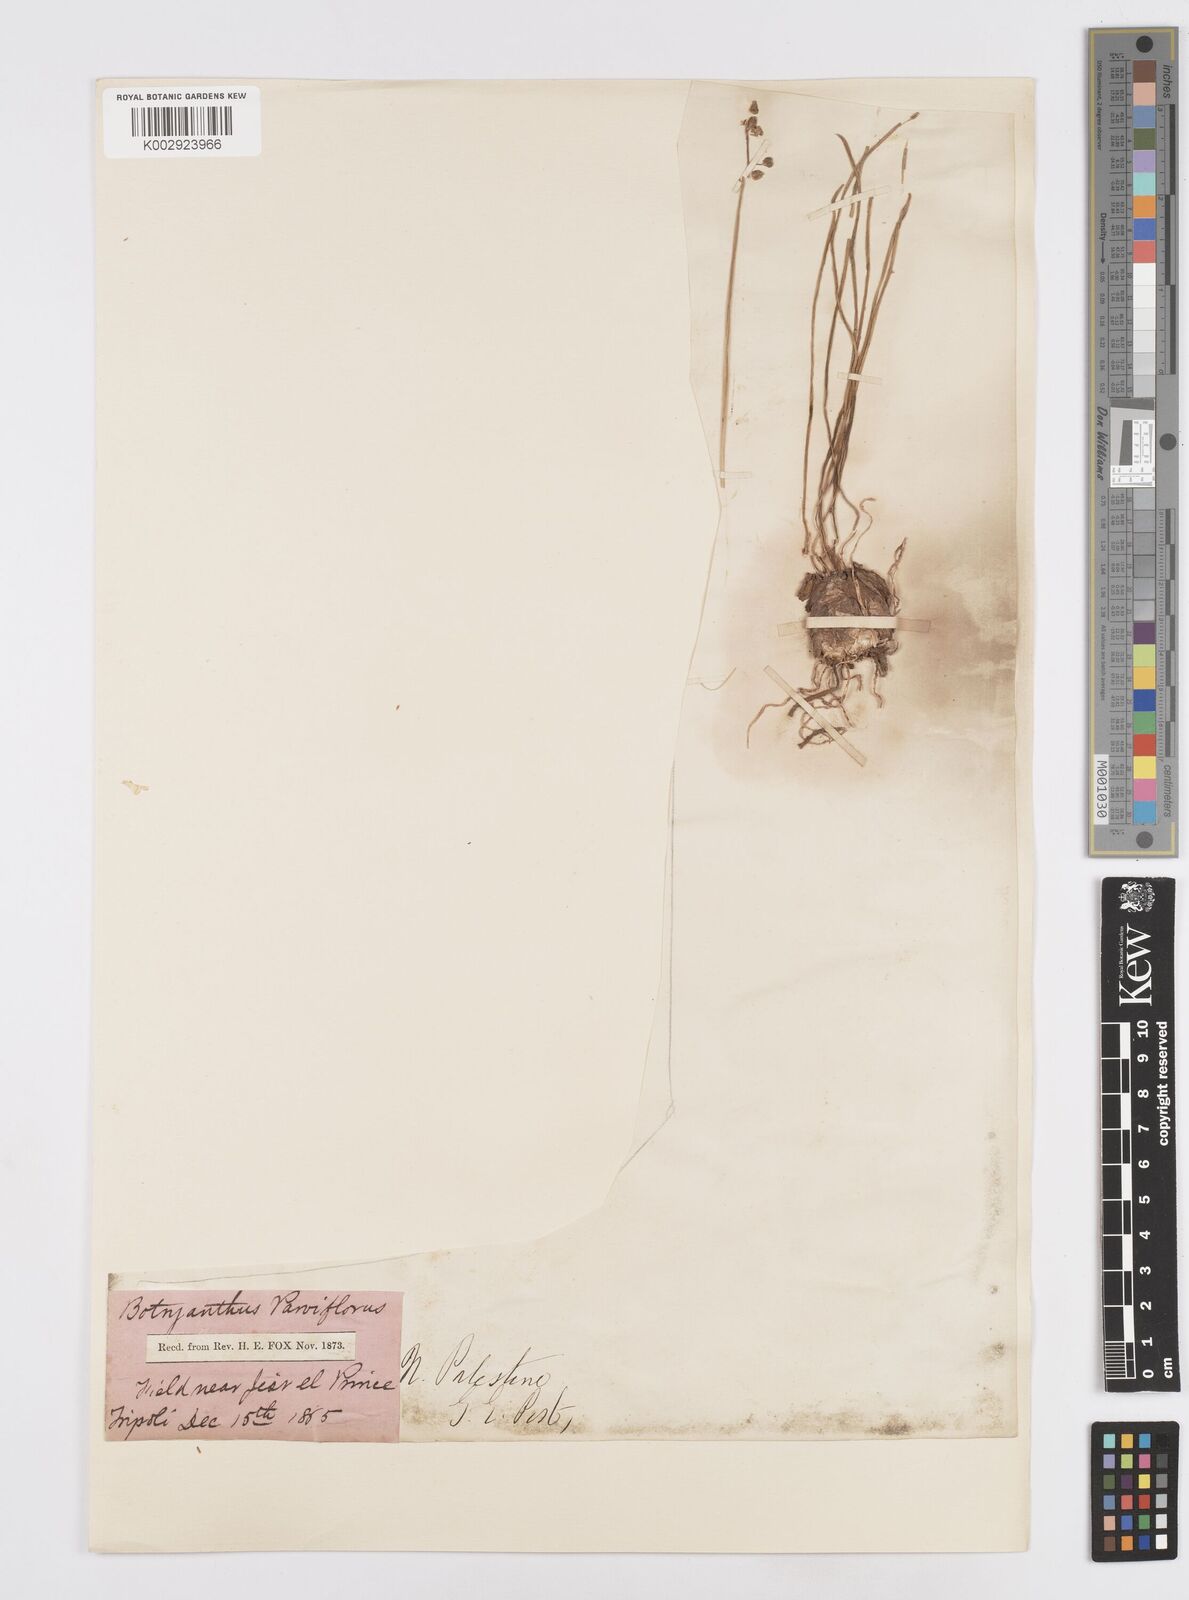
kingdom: Plantae
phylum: Tracheophyta
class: Liliopsida
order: Asparagales
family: Asparagaceae
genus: Muscari
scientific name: Muscari parviflorum
